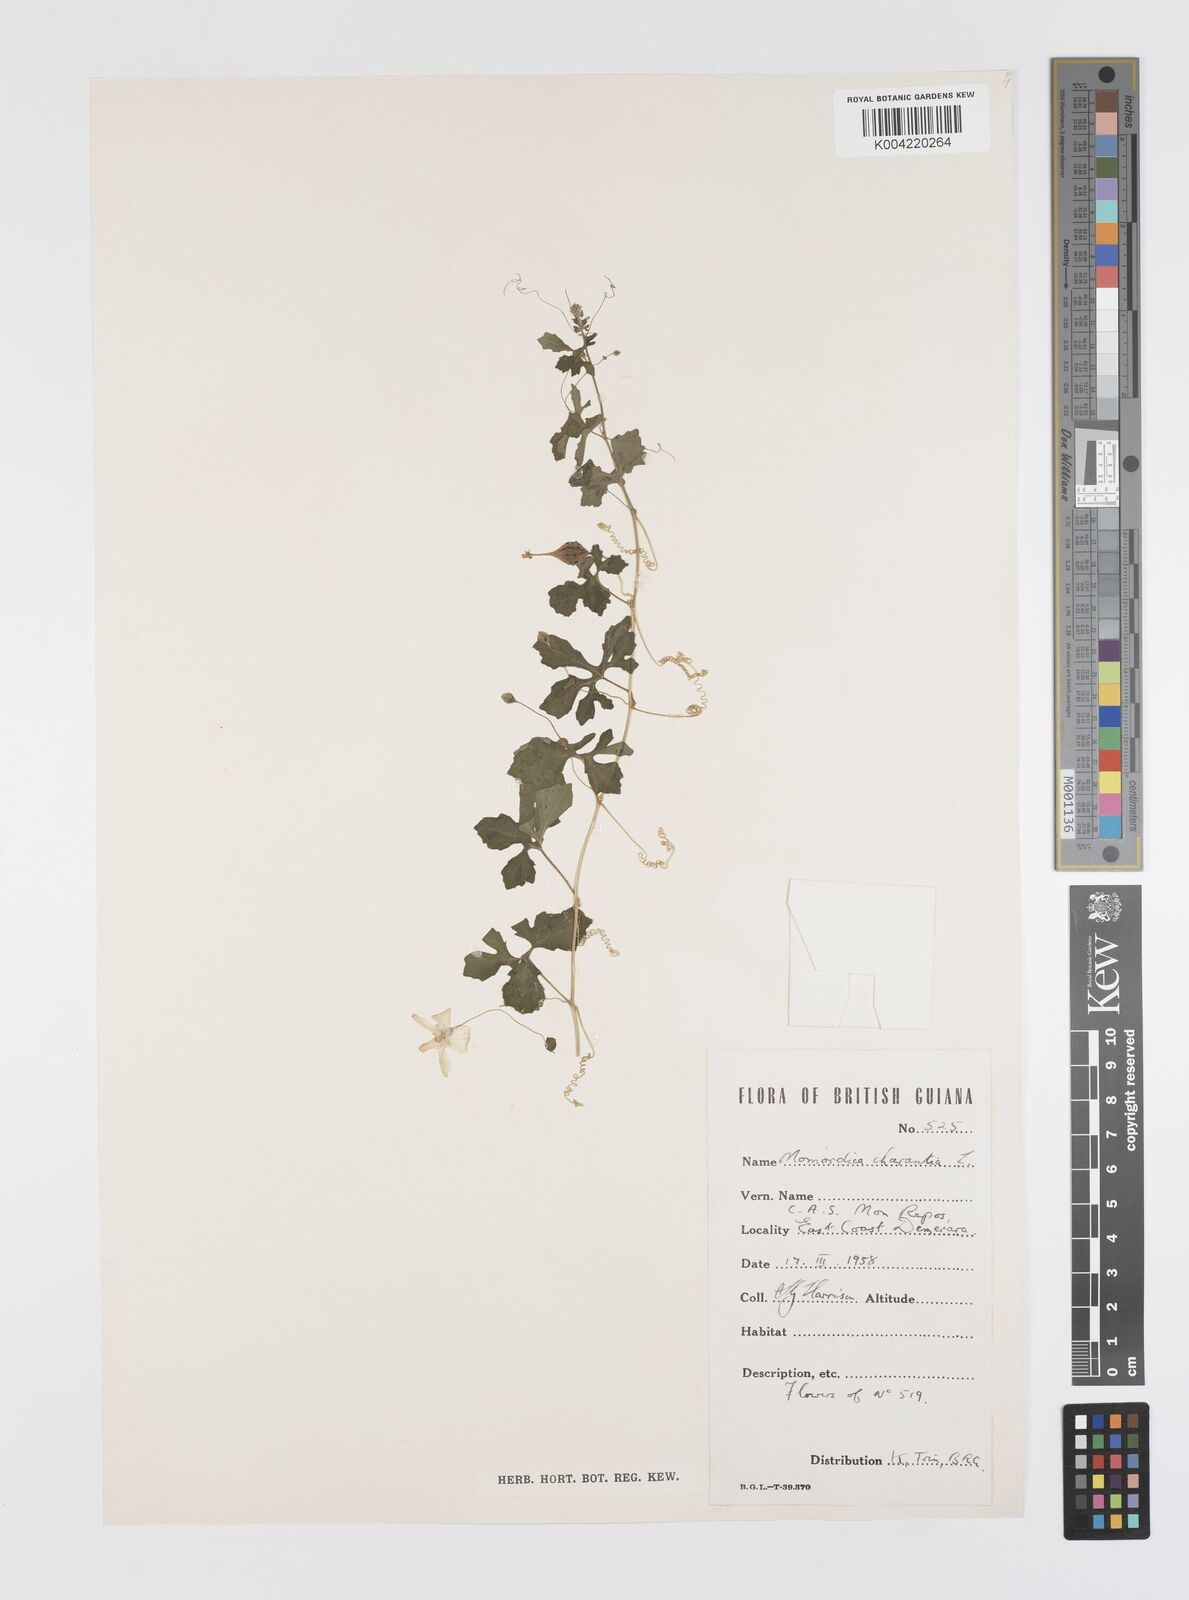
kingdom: Plantae
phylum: Tracheophyta
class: Magnoliopsida
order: Cucurbitales
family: Cucurbitaceae
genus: Momordica
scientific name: Momordica charantia
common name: Balsampear
